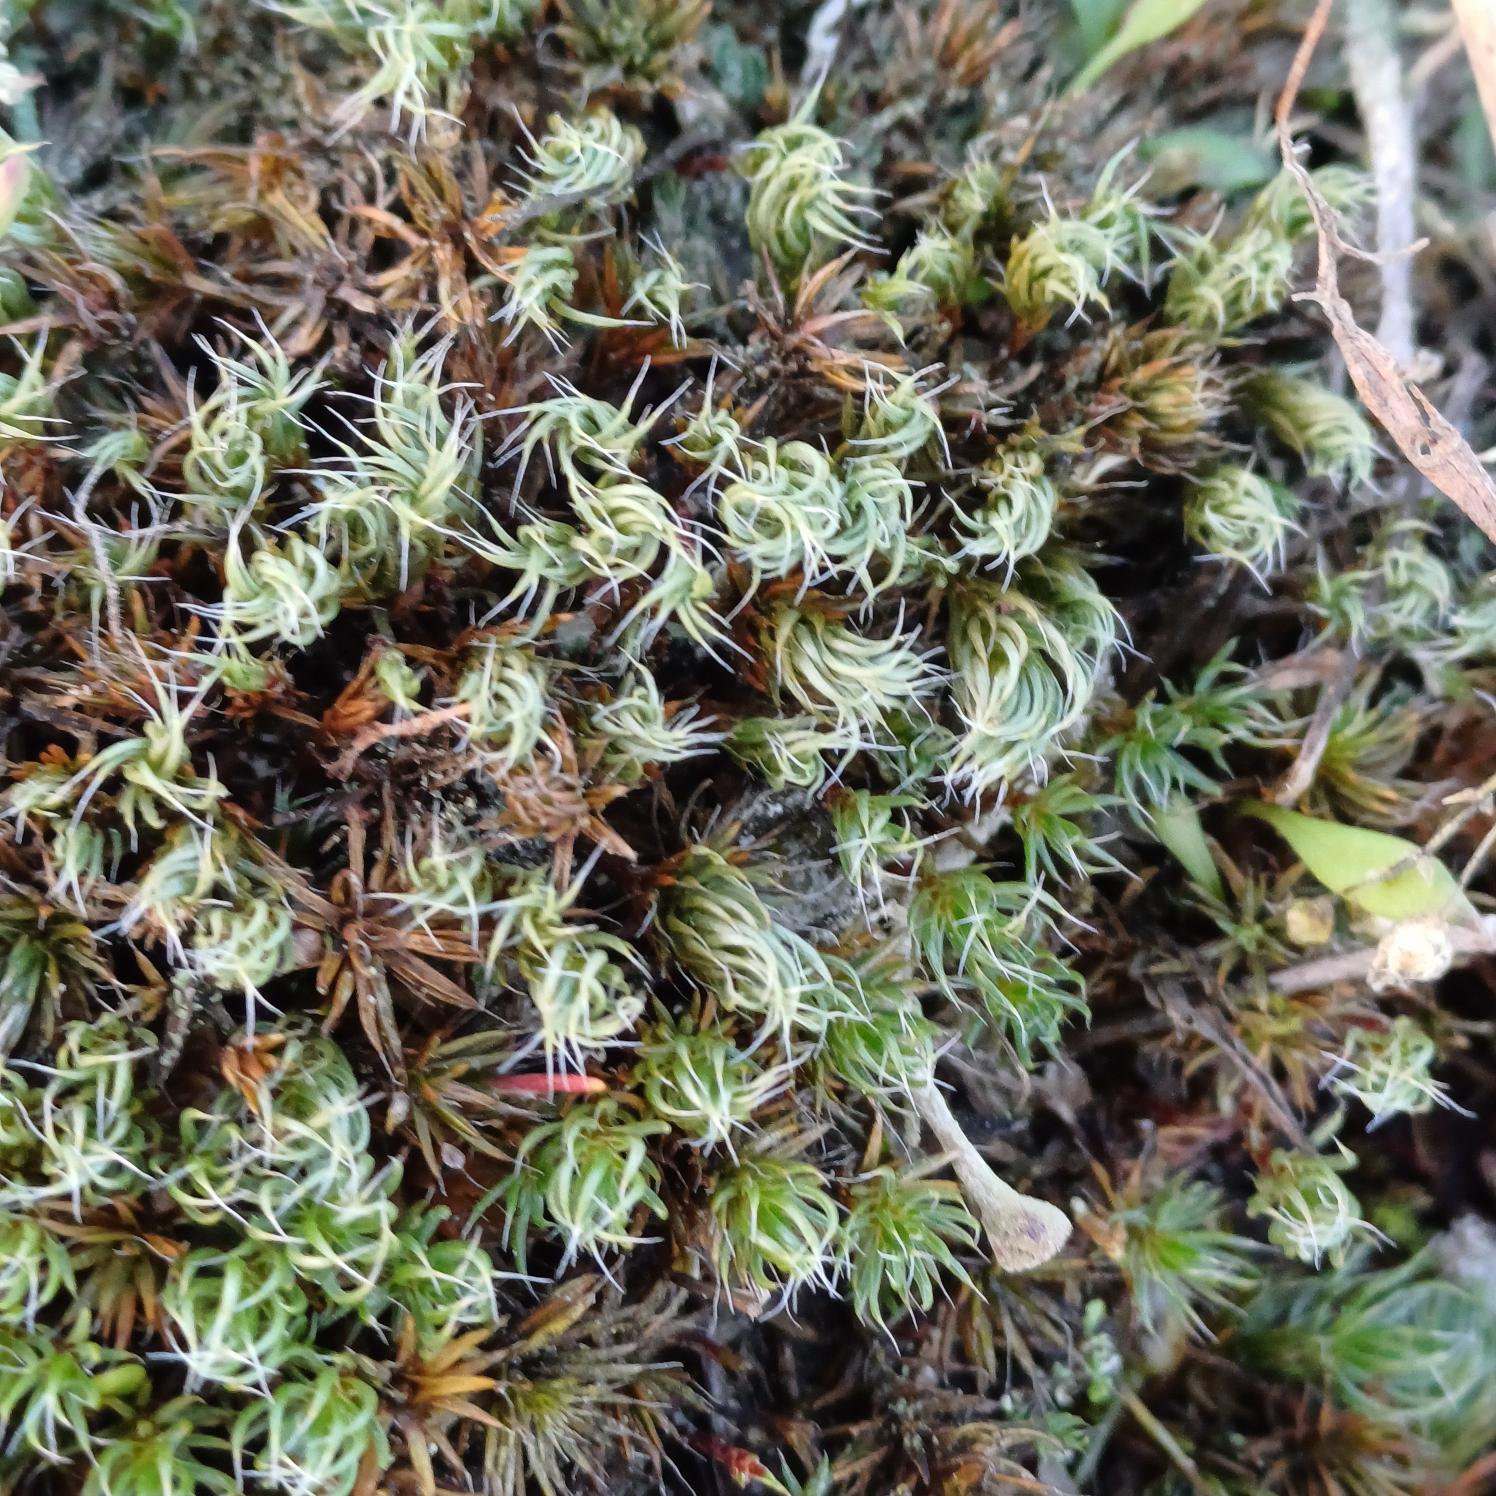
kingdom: Plantae
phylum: Bryophyta
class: Polytrichopsida
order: Polytrichales
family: Polytrichaceae
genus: Polytrichum
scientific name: Polytrichum piliferum
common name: Hårspidset jomfruhår
